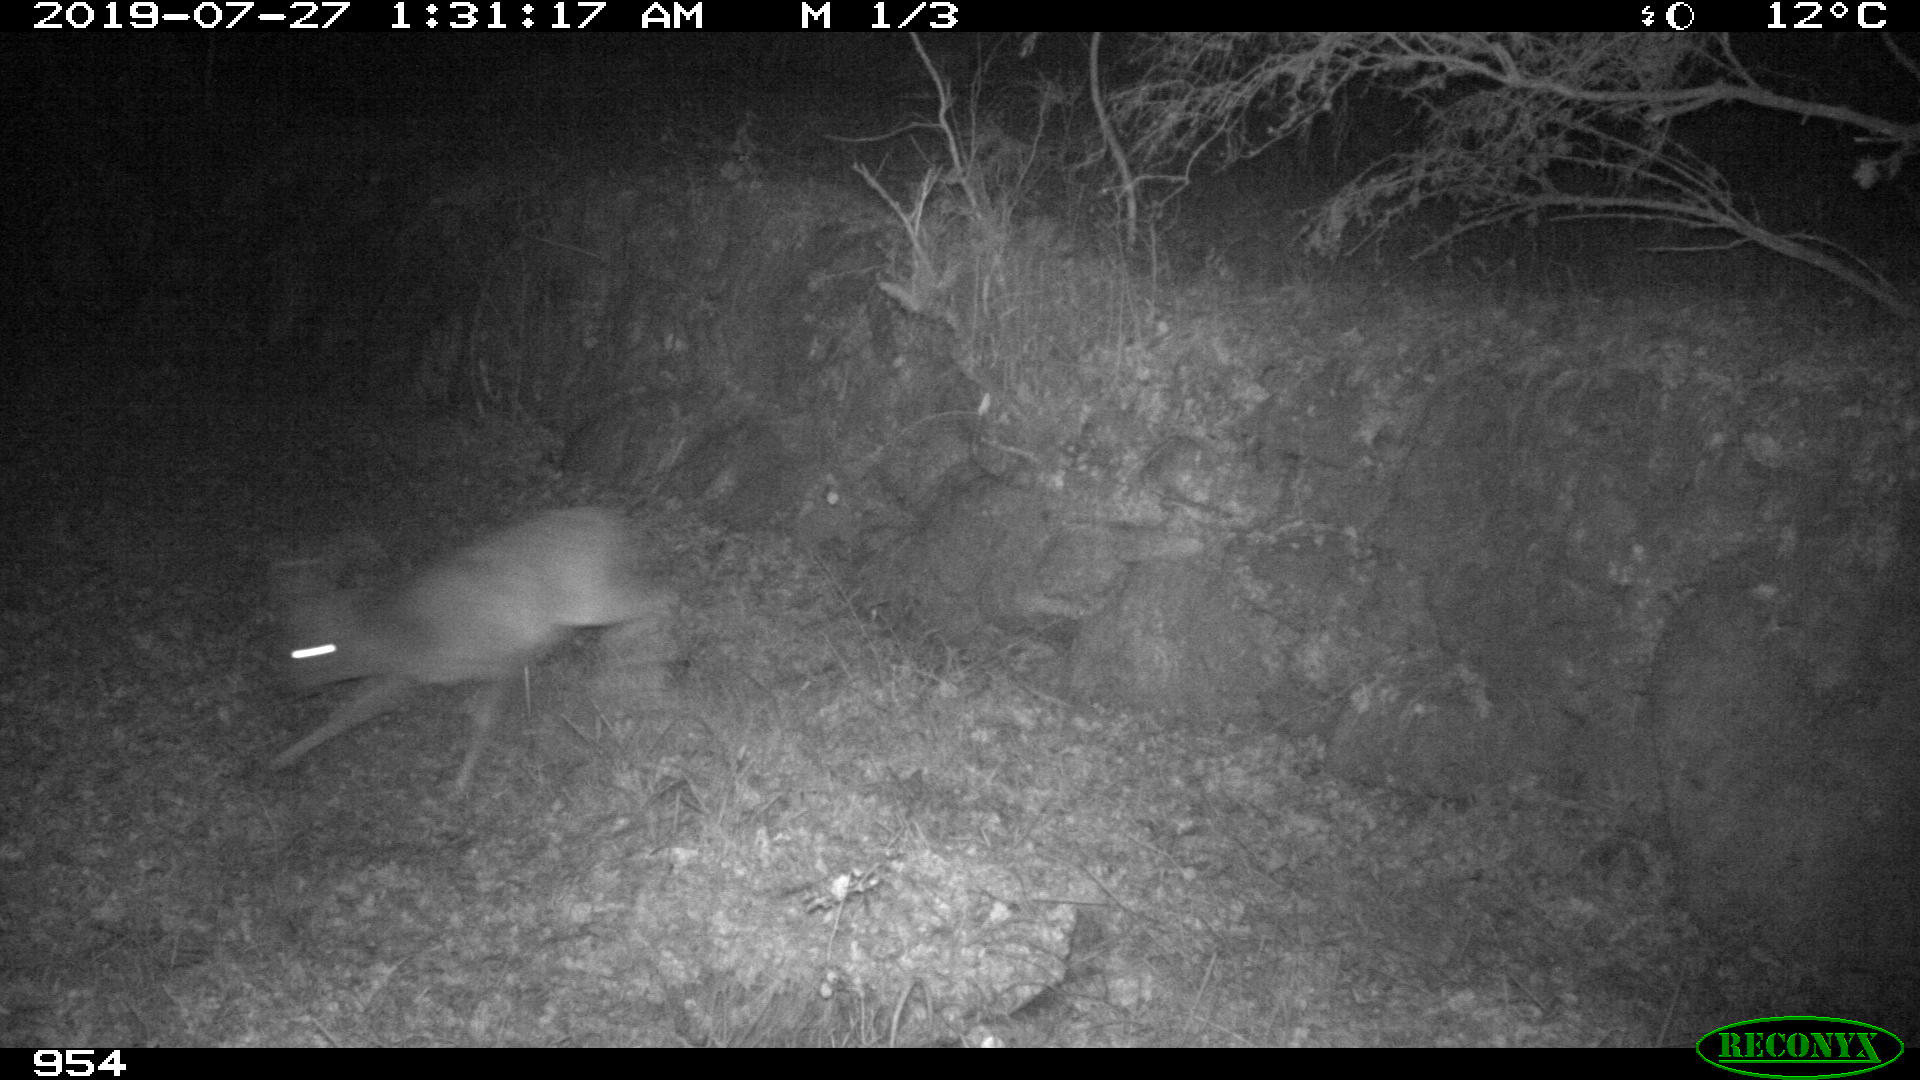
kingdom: Animalia
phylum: Chordata
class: Mammalia
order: Artiodactyla
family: Cervidae
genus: Capreolus
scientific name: Capreolus capreolus
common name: Western roe deer
